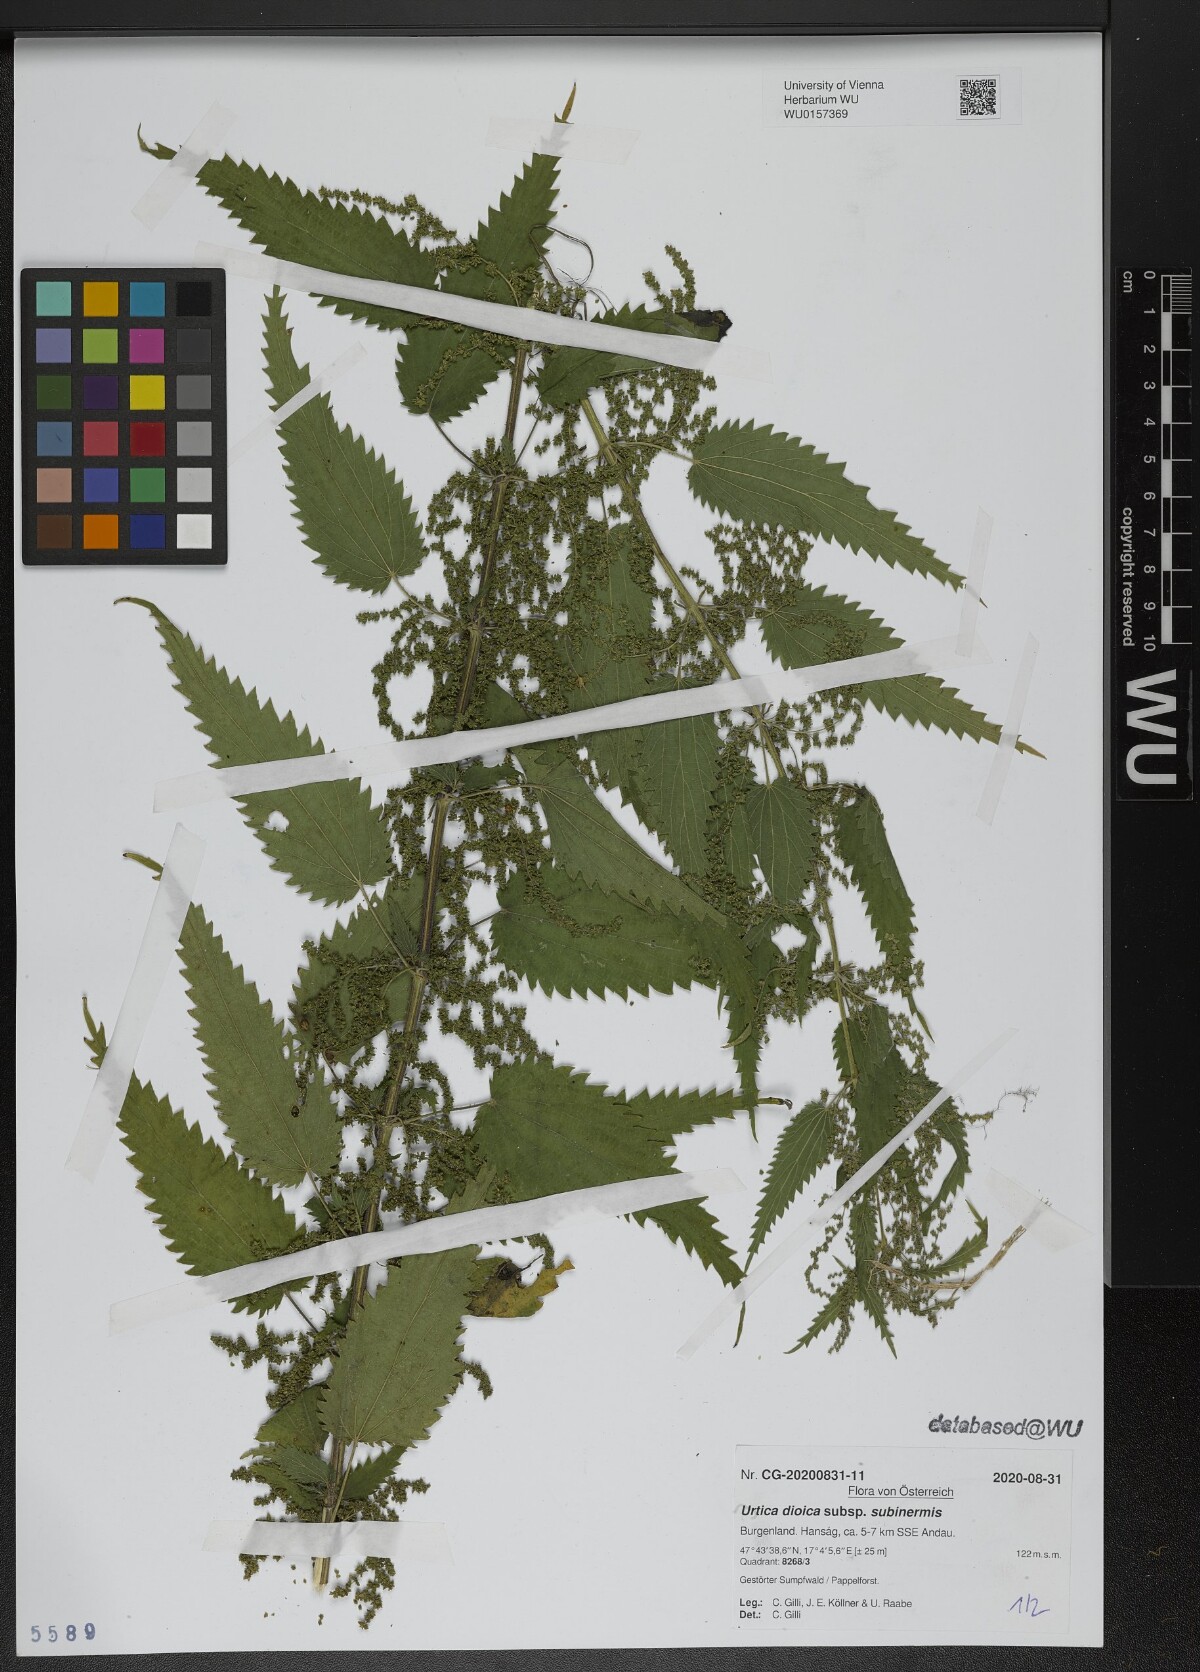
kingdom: Plantae
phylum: Tracheophyta
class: Magnoliopsida
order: Rosales
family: Urticaceae
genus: Urtica
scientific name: Urtica subinermis
